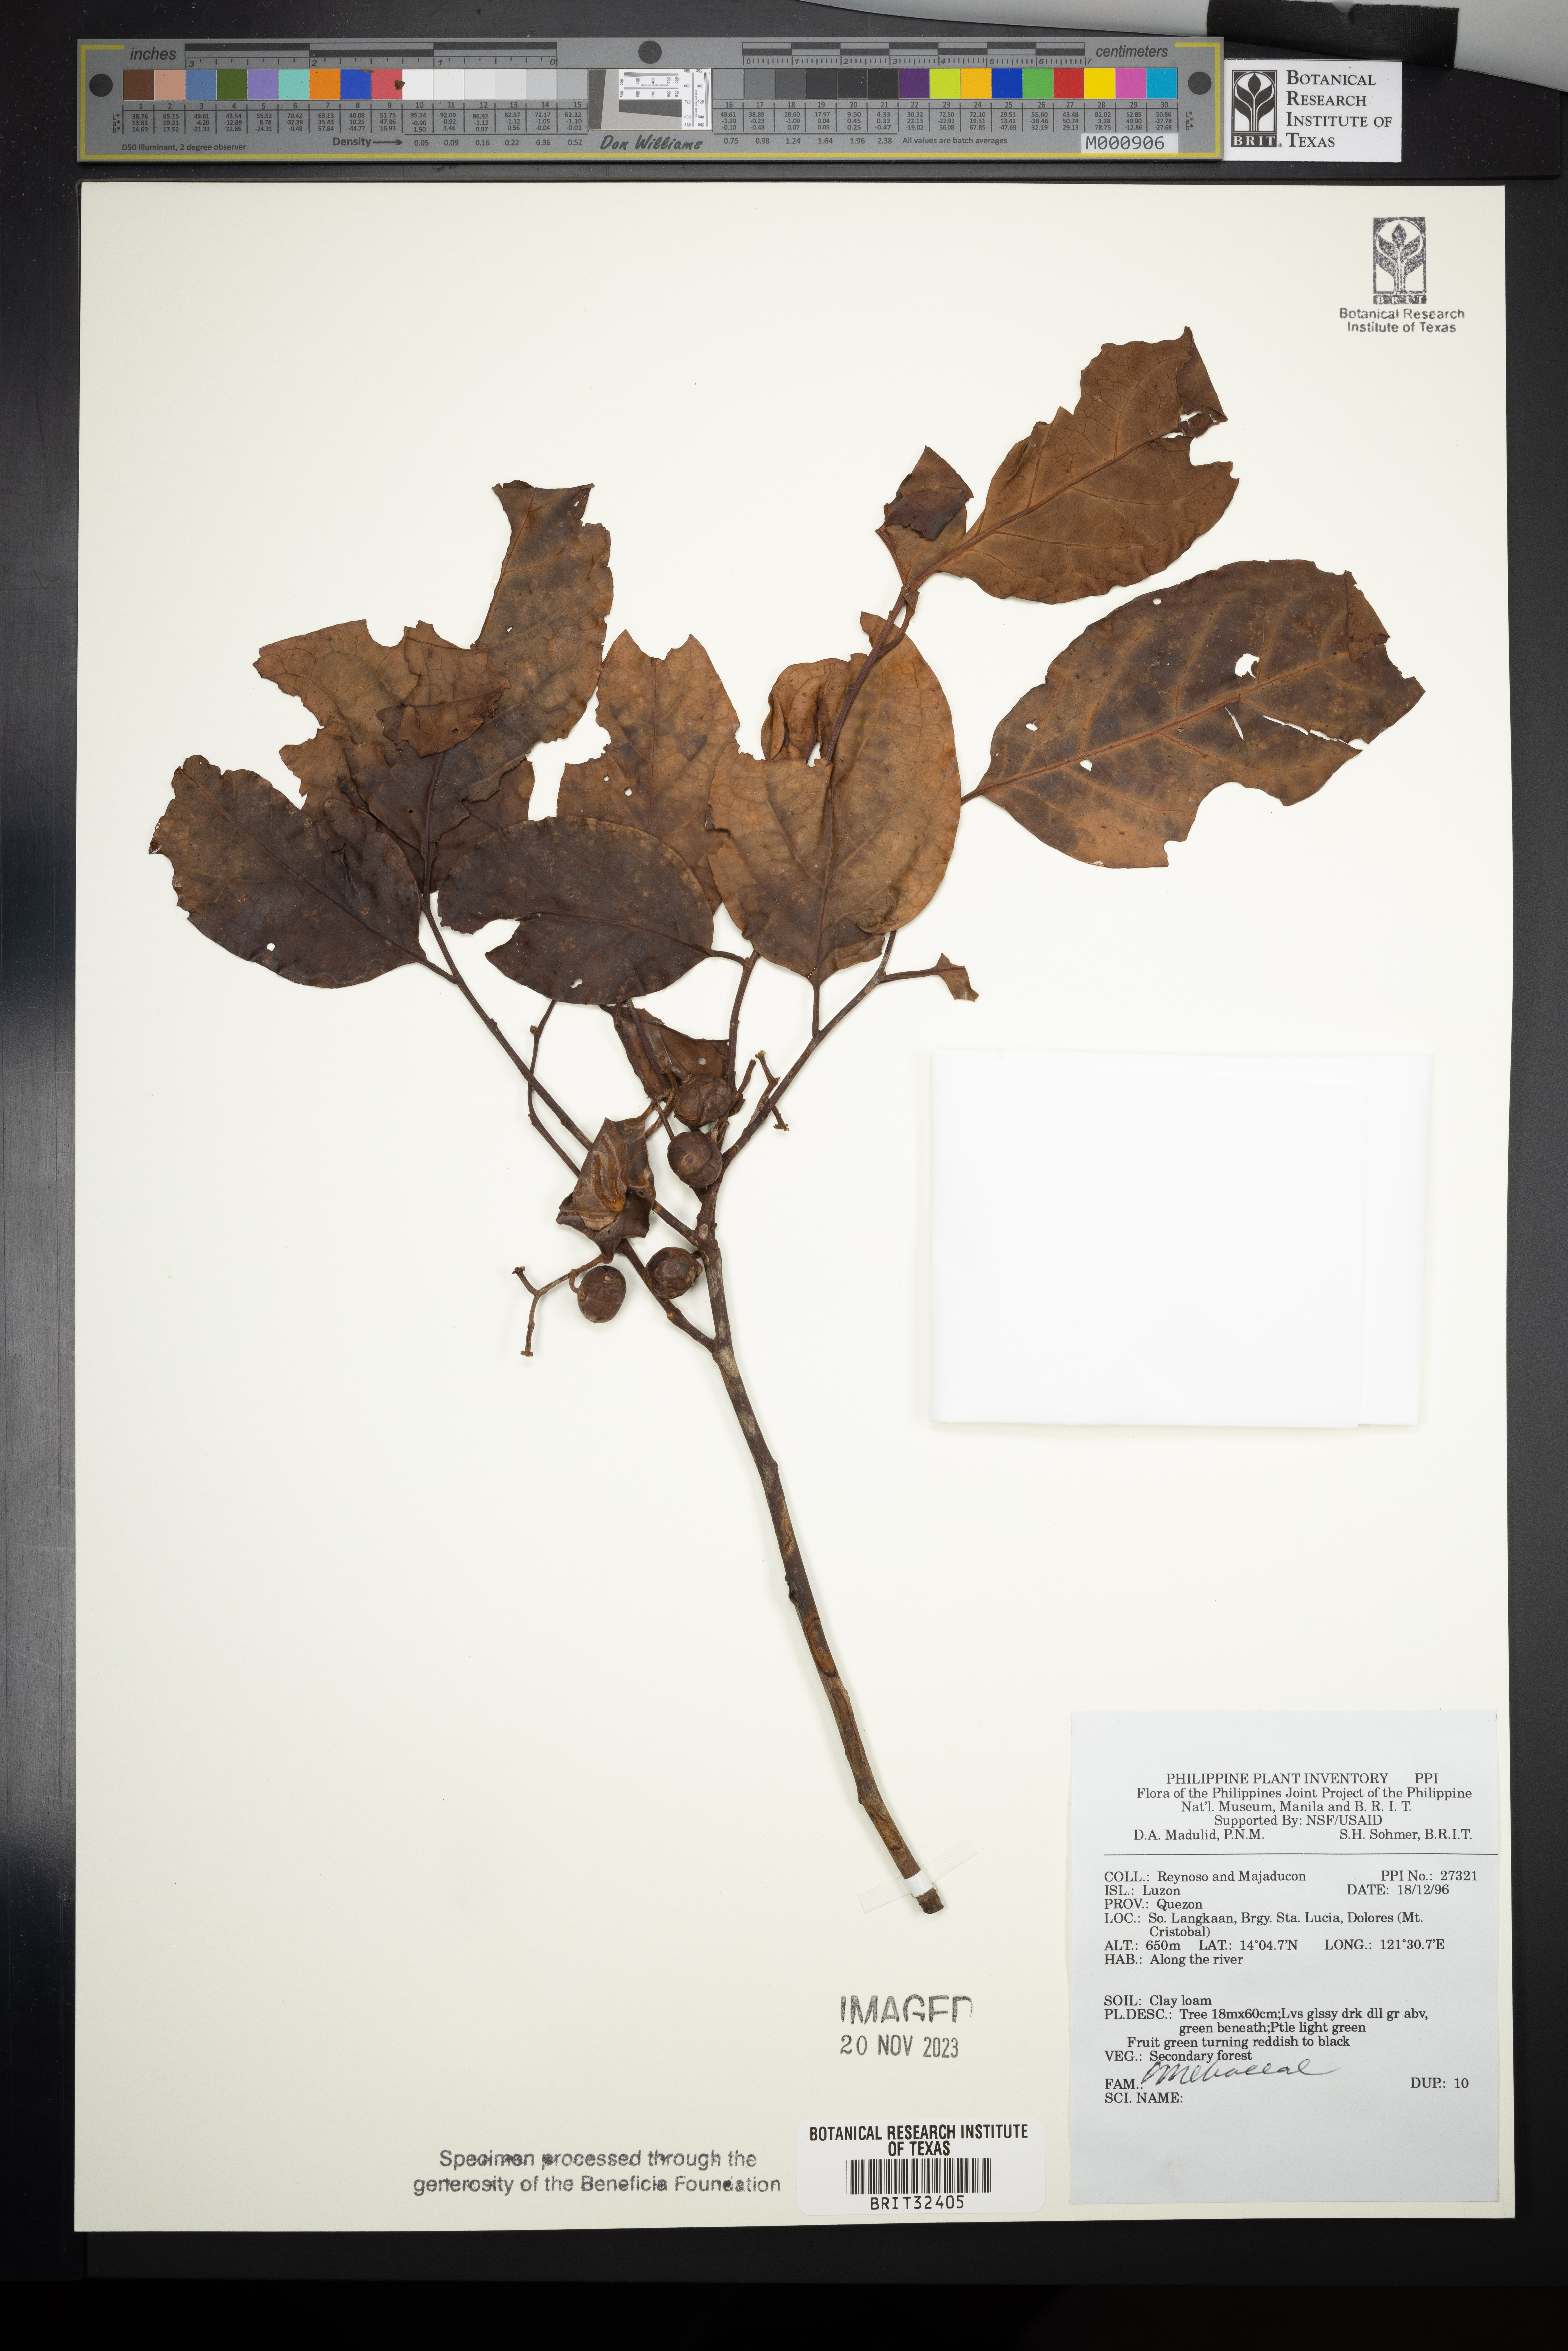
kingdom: Plantae
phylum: Tracheophyta
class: Magnoliopsida
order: Sapindales
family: Meliaceae
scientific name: Meliaceae
